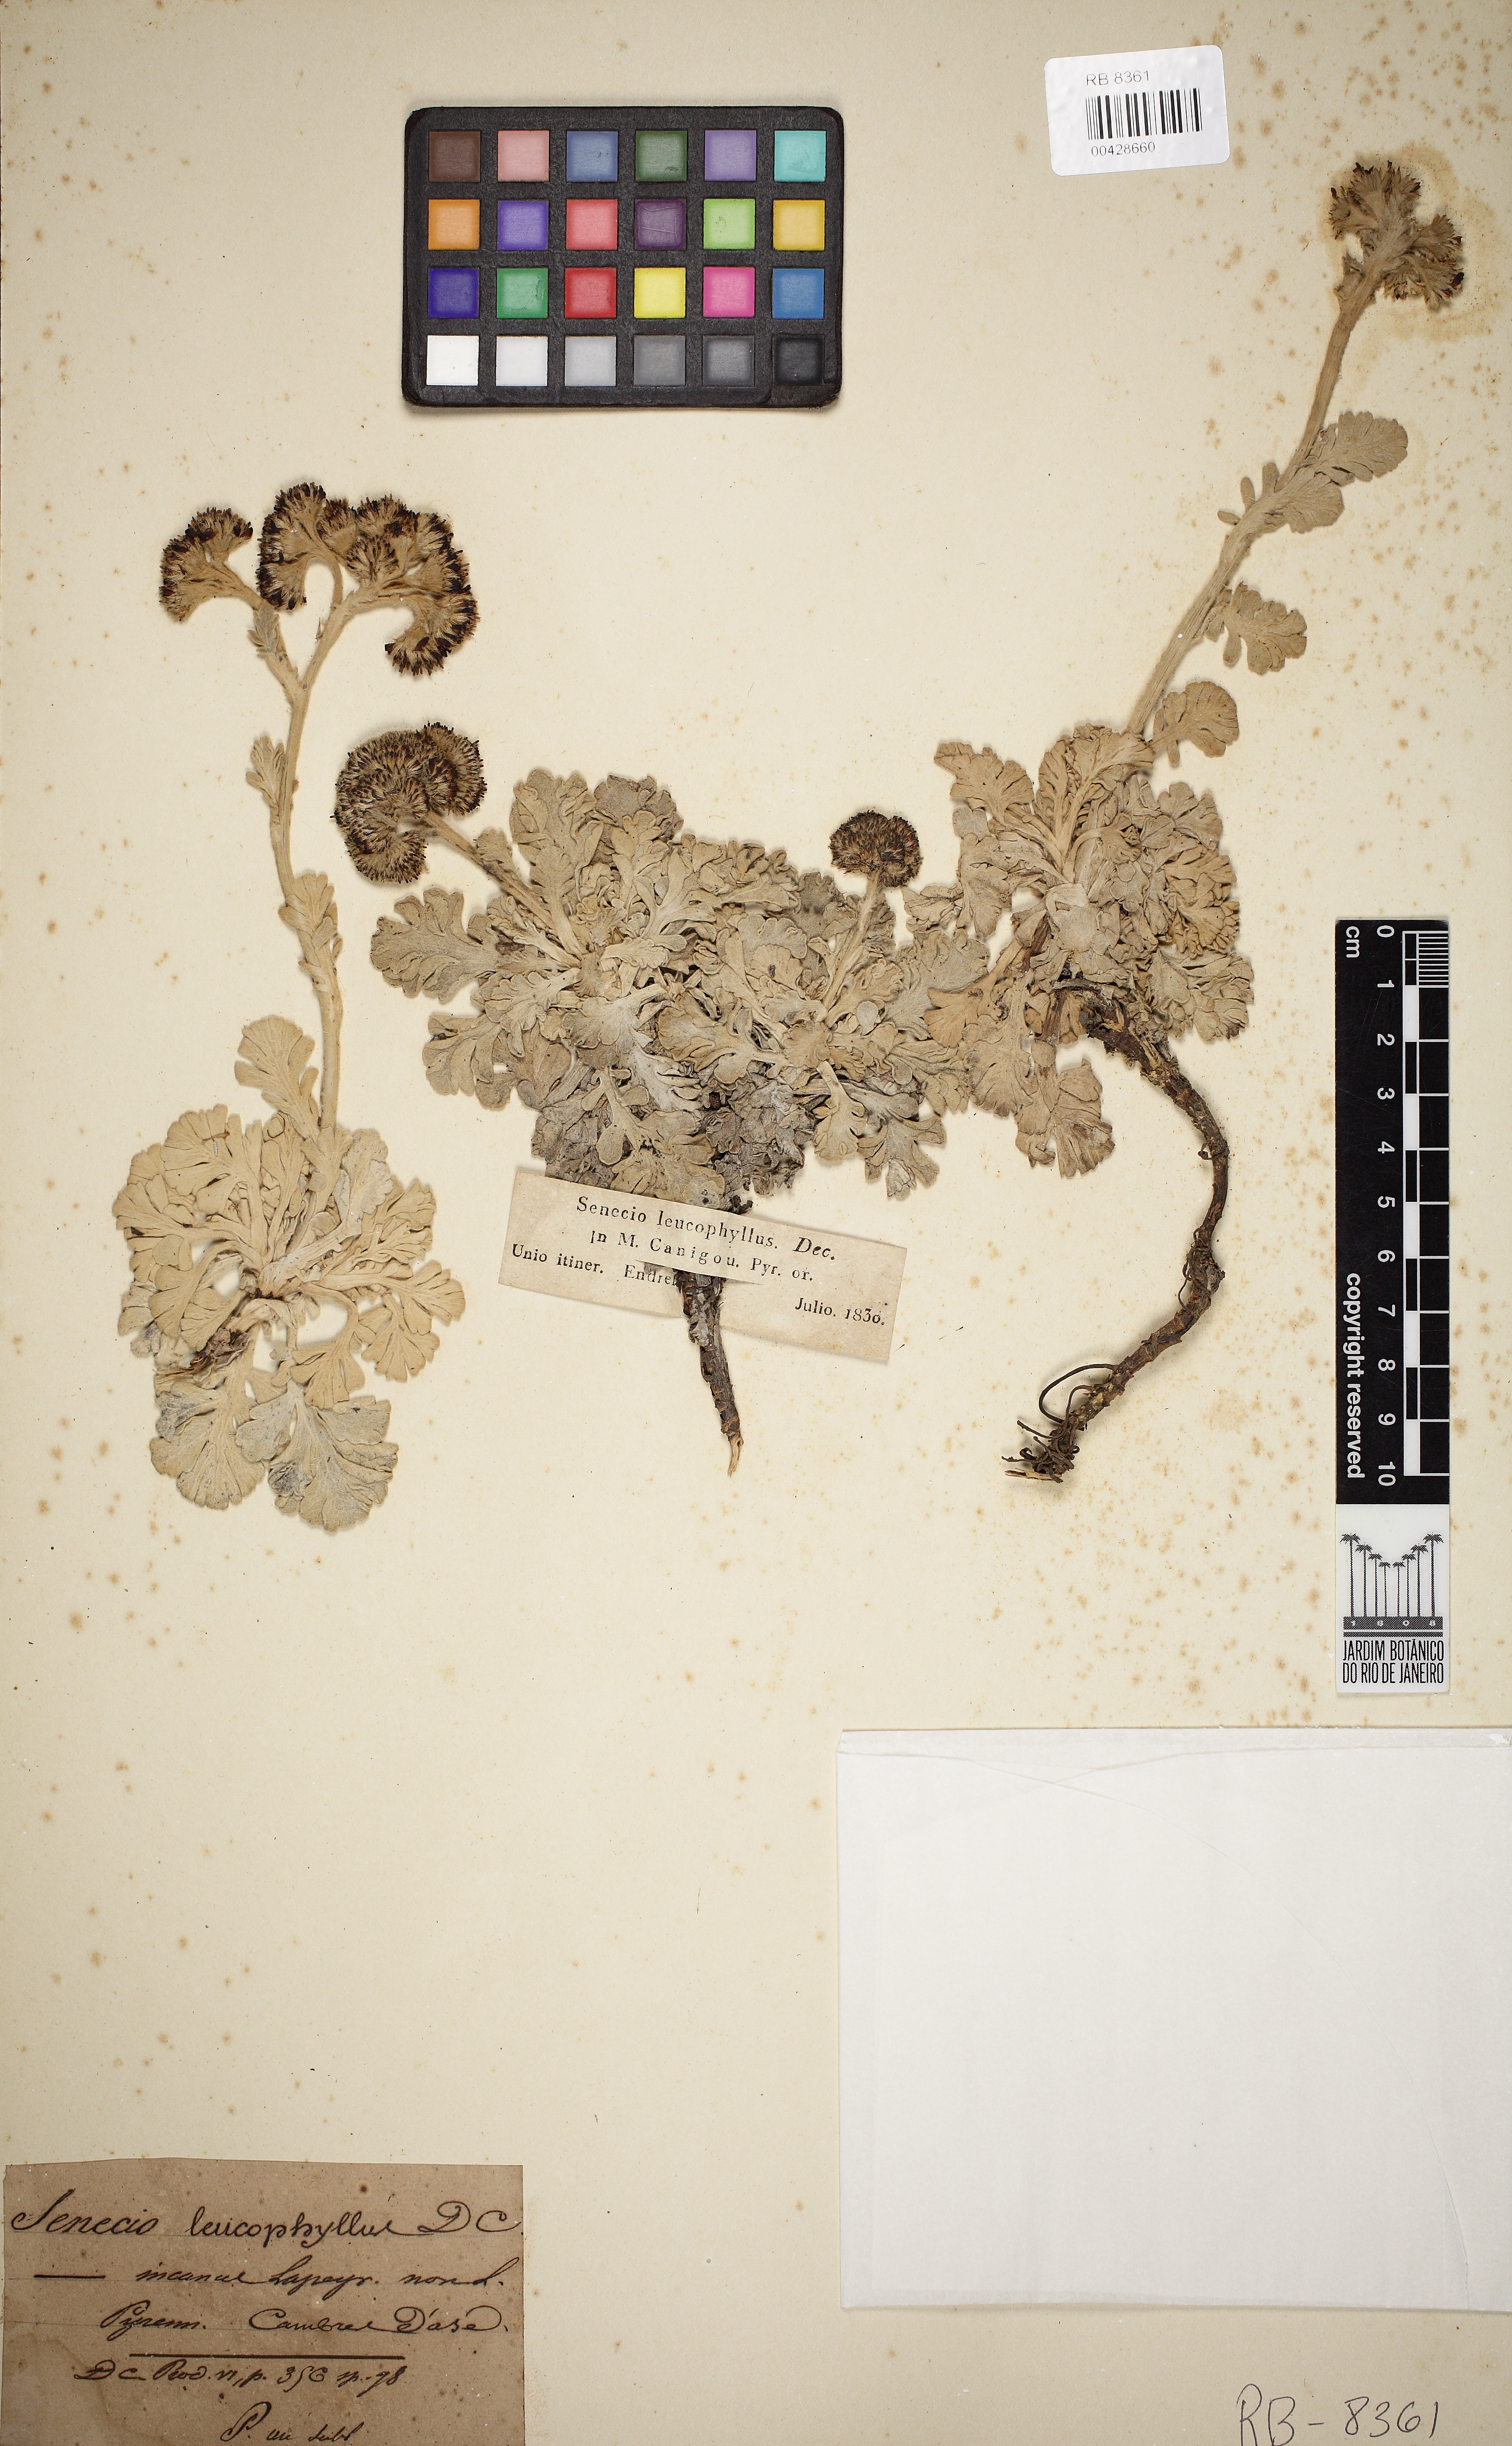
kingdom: Plantae
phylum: Tracheophyta
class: Magnoliopsida
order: Asterales
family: Asteraceae
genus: Jacobaea
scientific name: Jacobaea leucophylla
